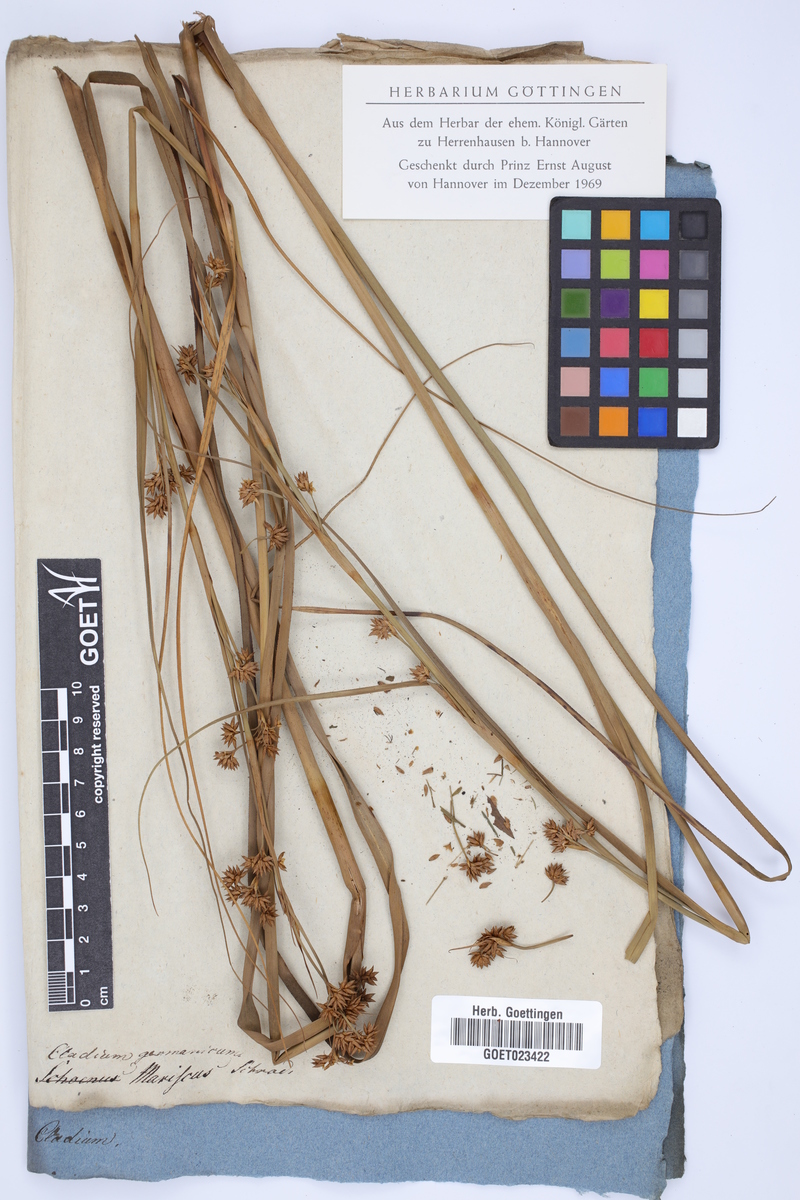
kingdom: Plantae
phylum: Tracheophyta
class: Liliopsida
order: Poales
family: Cyperaceae
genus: Cladium
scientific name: Cladium mariscus
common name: Great fen-sedge
